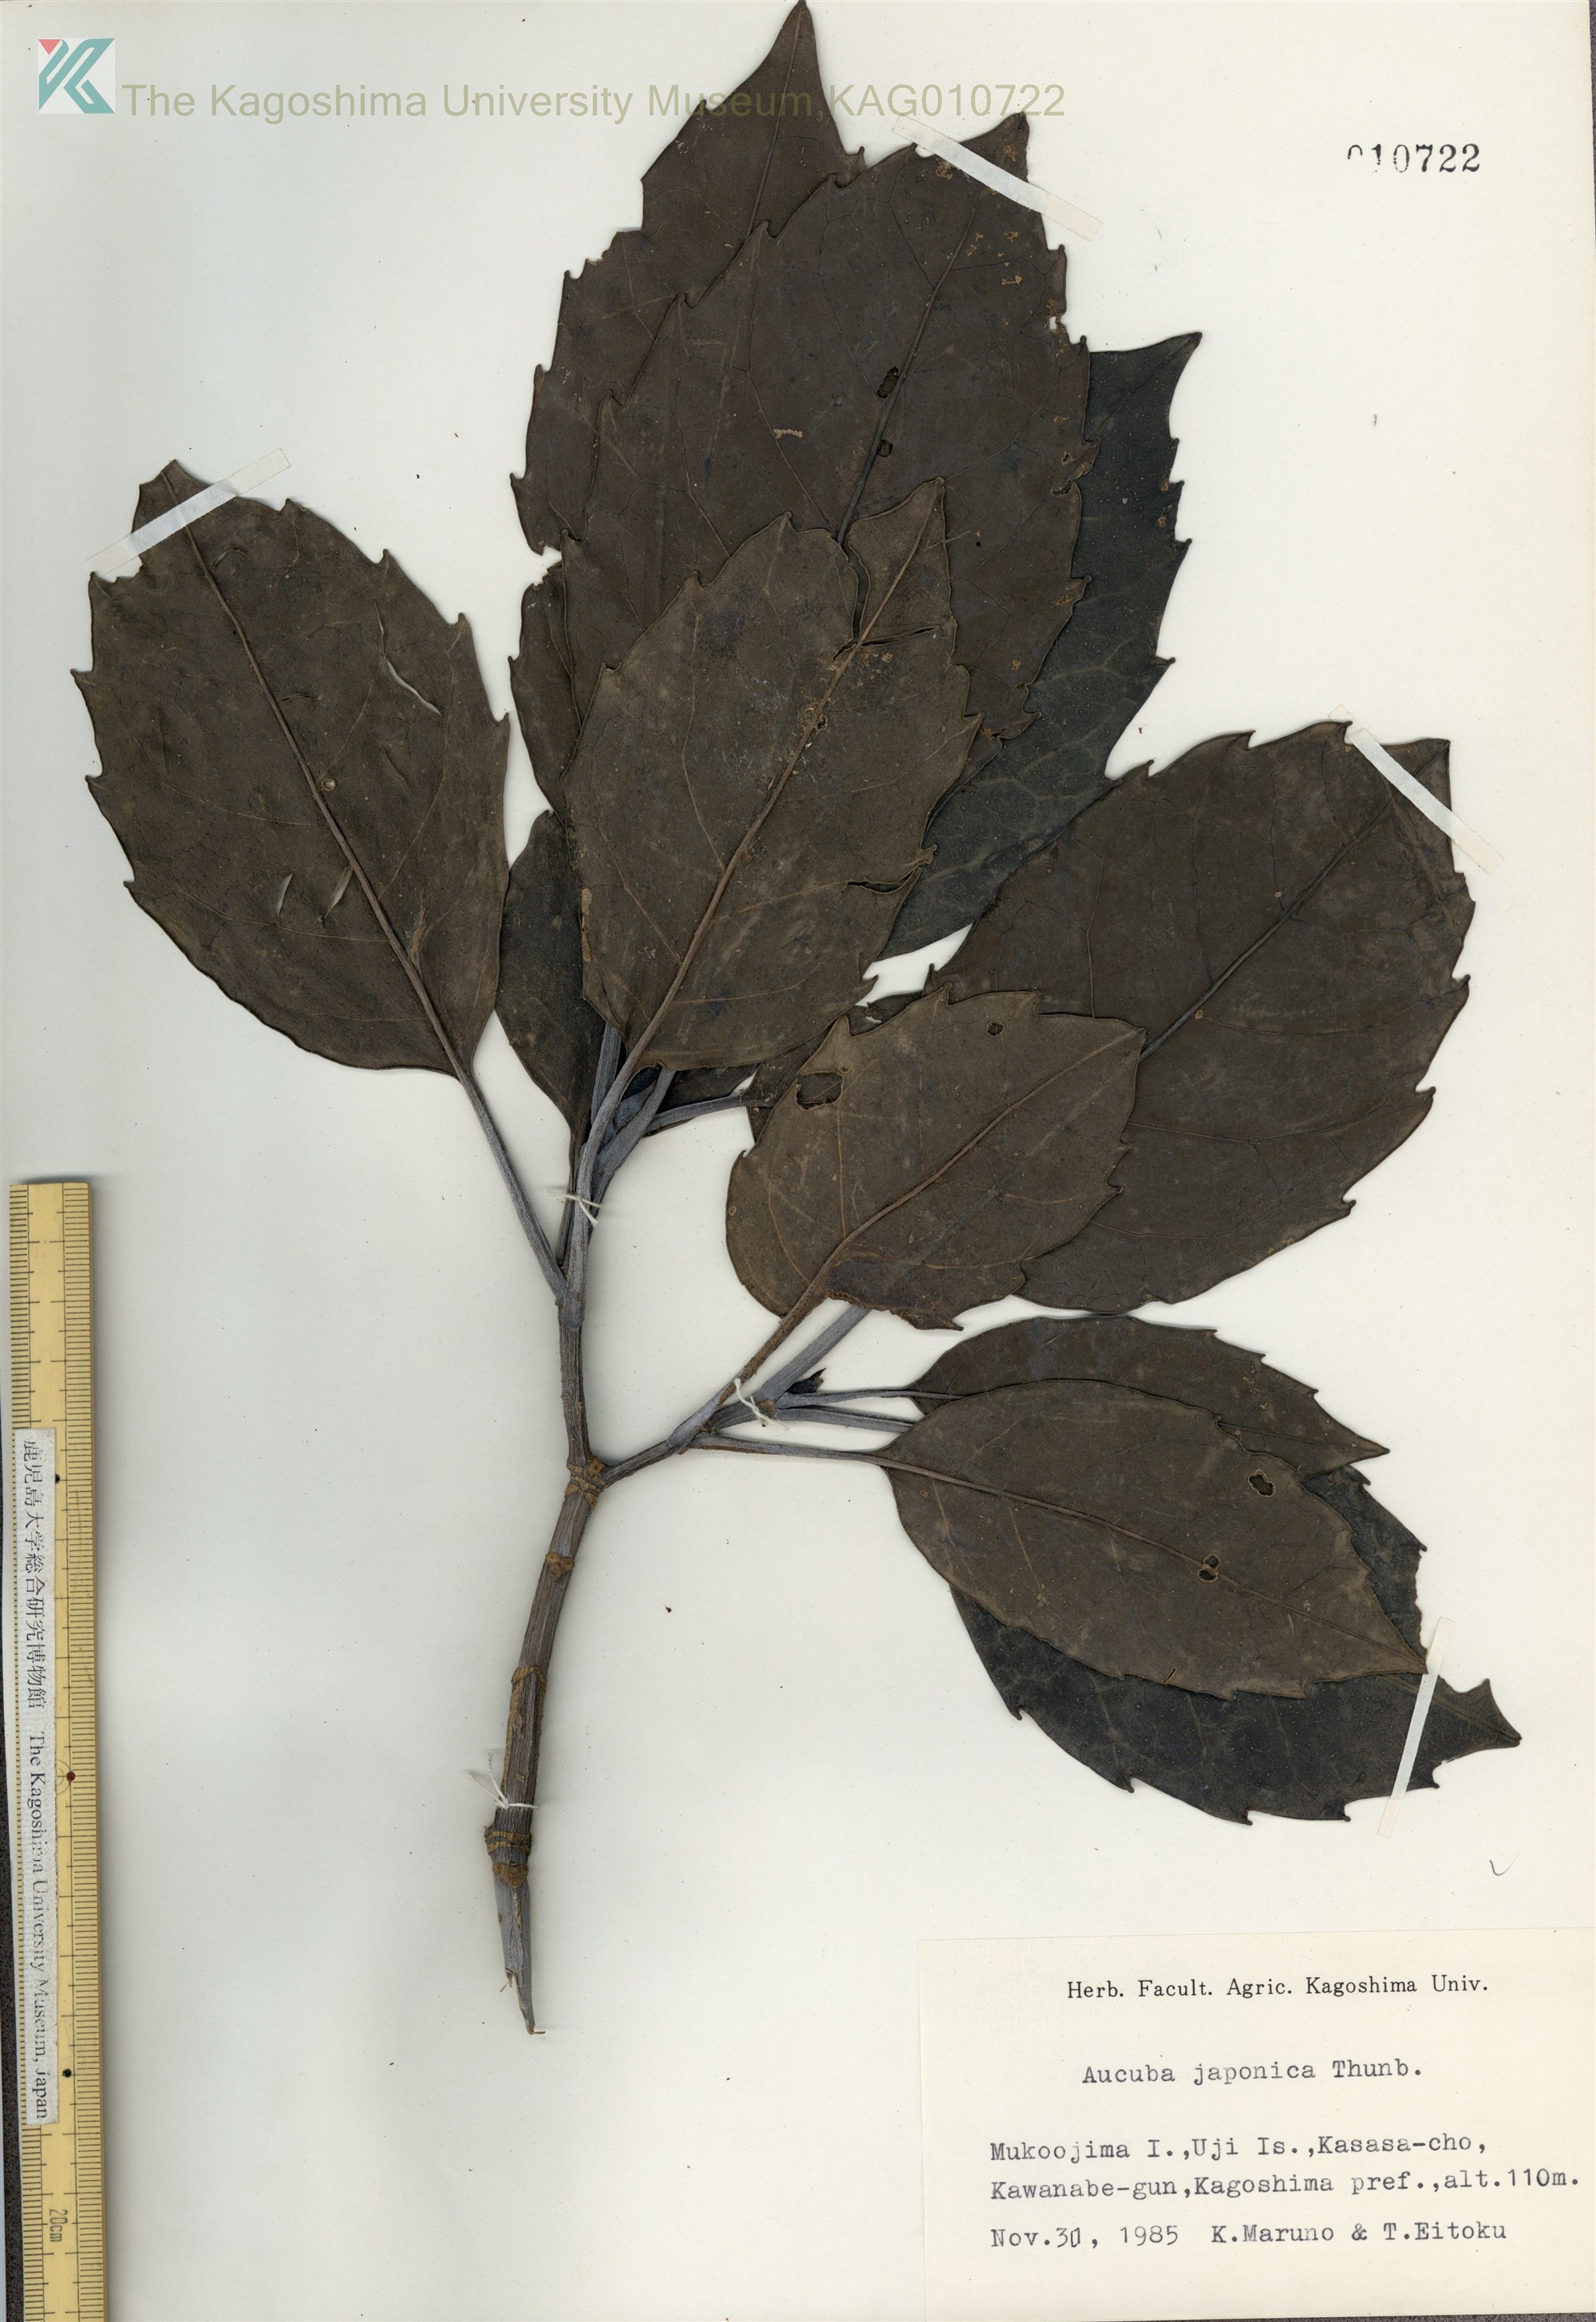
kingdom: Plantae
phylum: Tracheophyta
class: Magnoliopsida
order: Garryales
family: Garryaceae
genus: Aucuba
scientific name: Aucuba japonica
